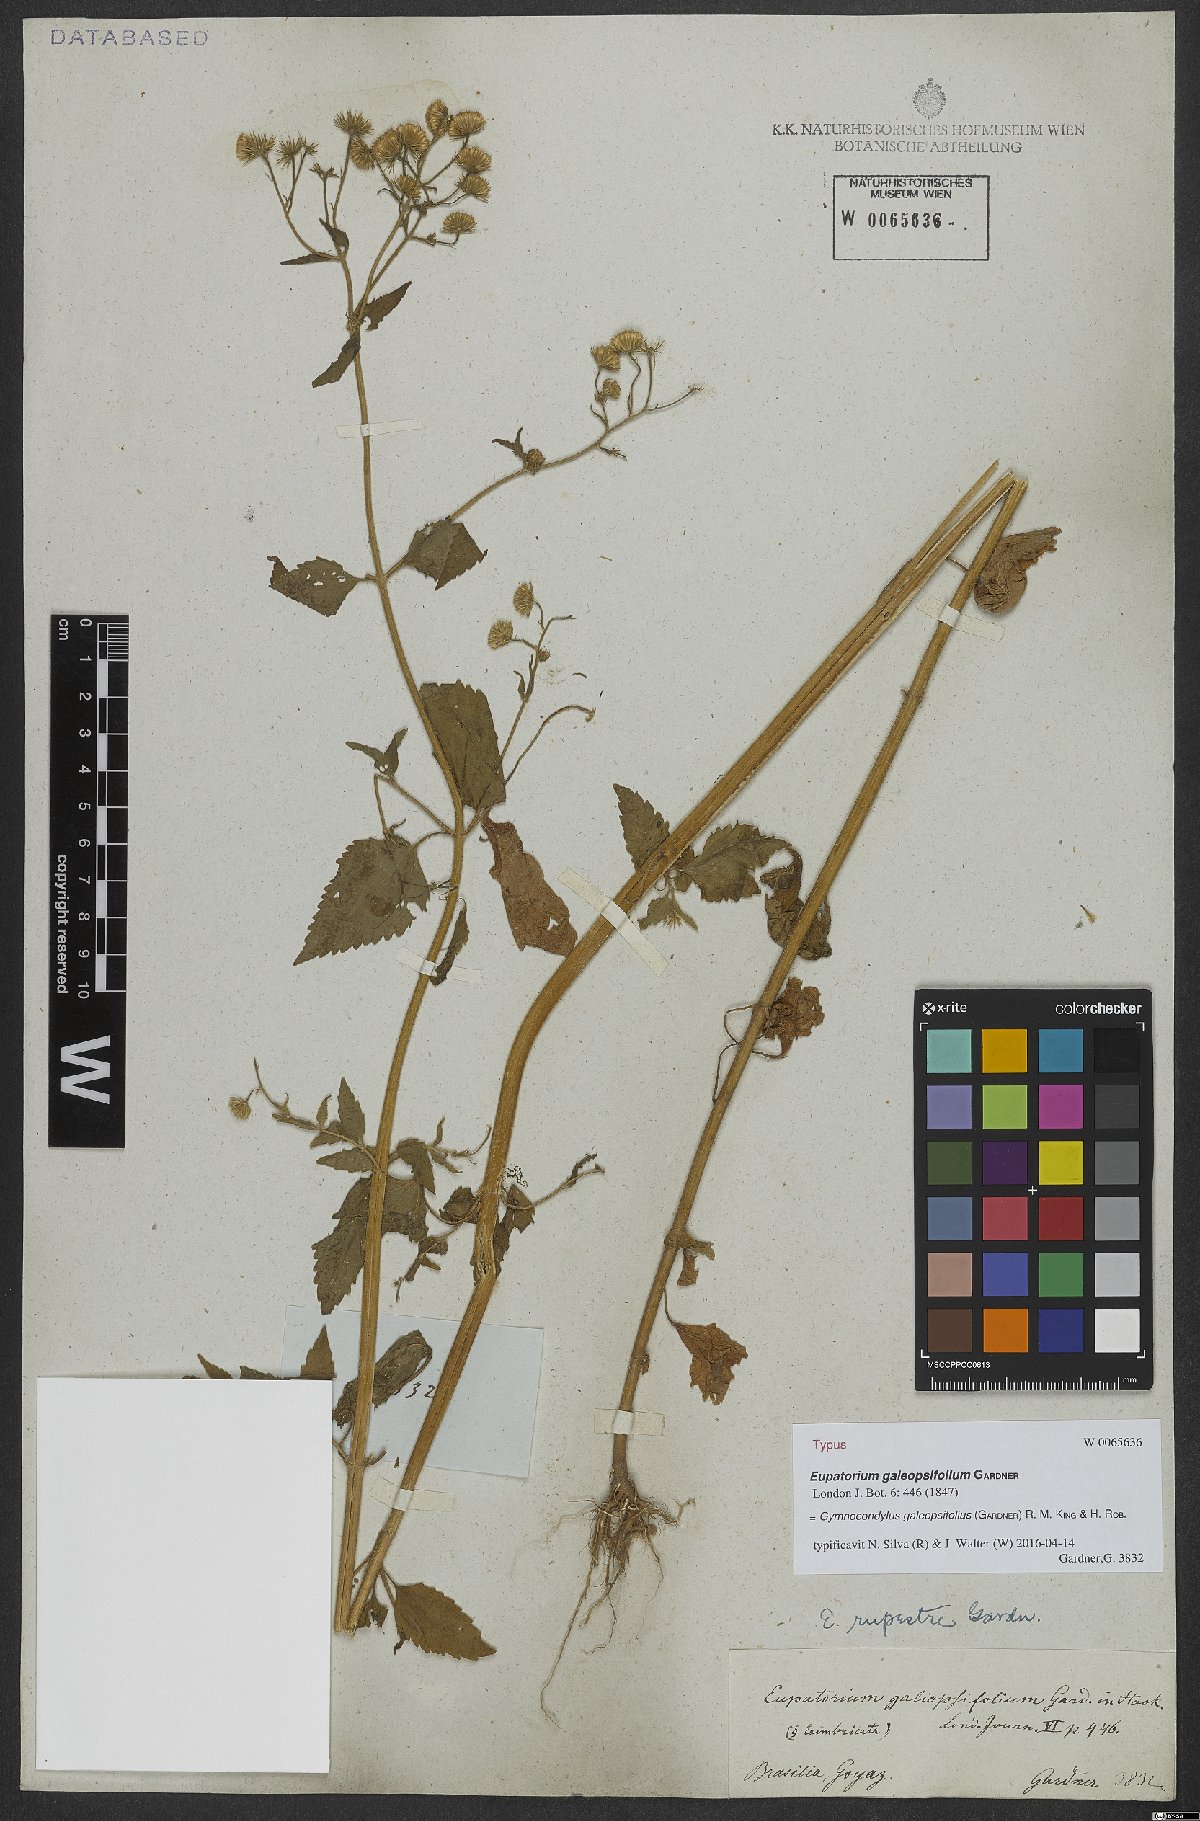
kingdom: Plantae
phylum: Tracheophyta
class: Magnoliopsida
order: Asterales
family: Asteraceae
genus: Gymnocondylus
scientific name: Gymnocondylus galeopsifolius
